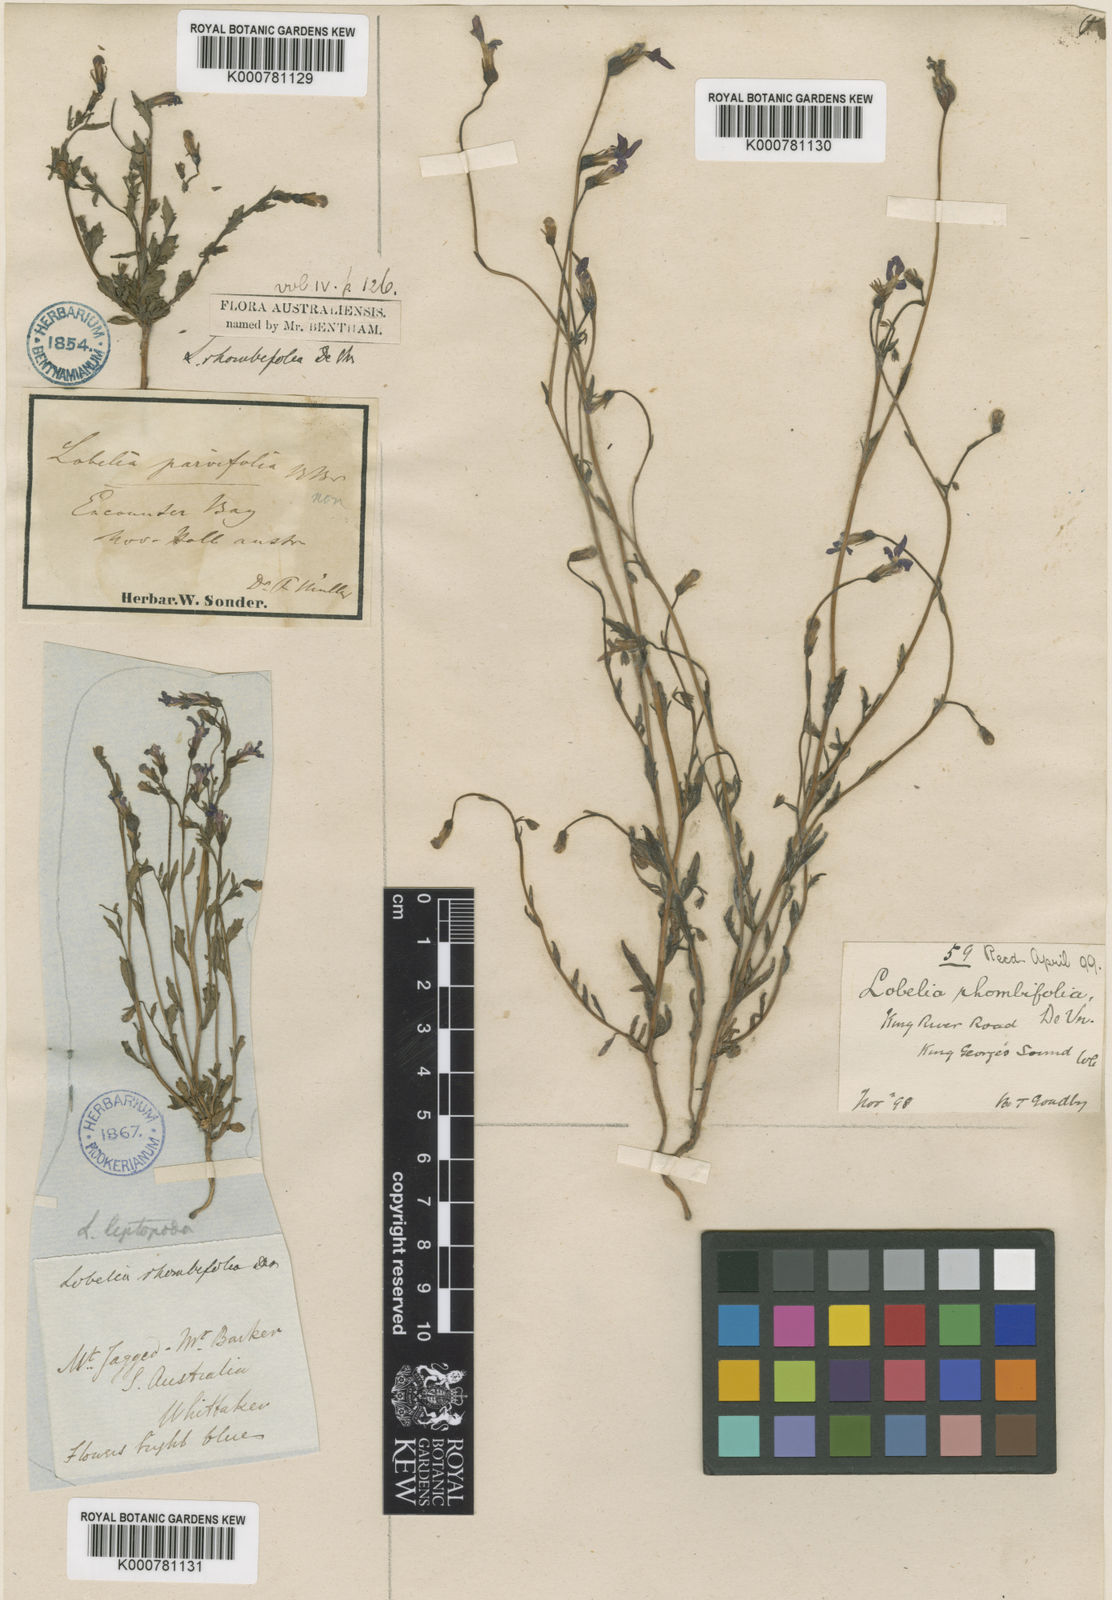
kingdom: Plantae
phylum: Tracheophyta
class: Magnoliopsida
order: Asterales
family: Campanulaceae
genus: Lobelia
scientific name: Lobelia rhombifolia
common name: Tufted lobelia
